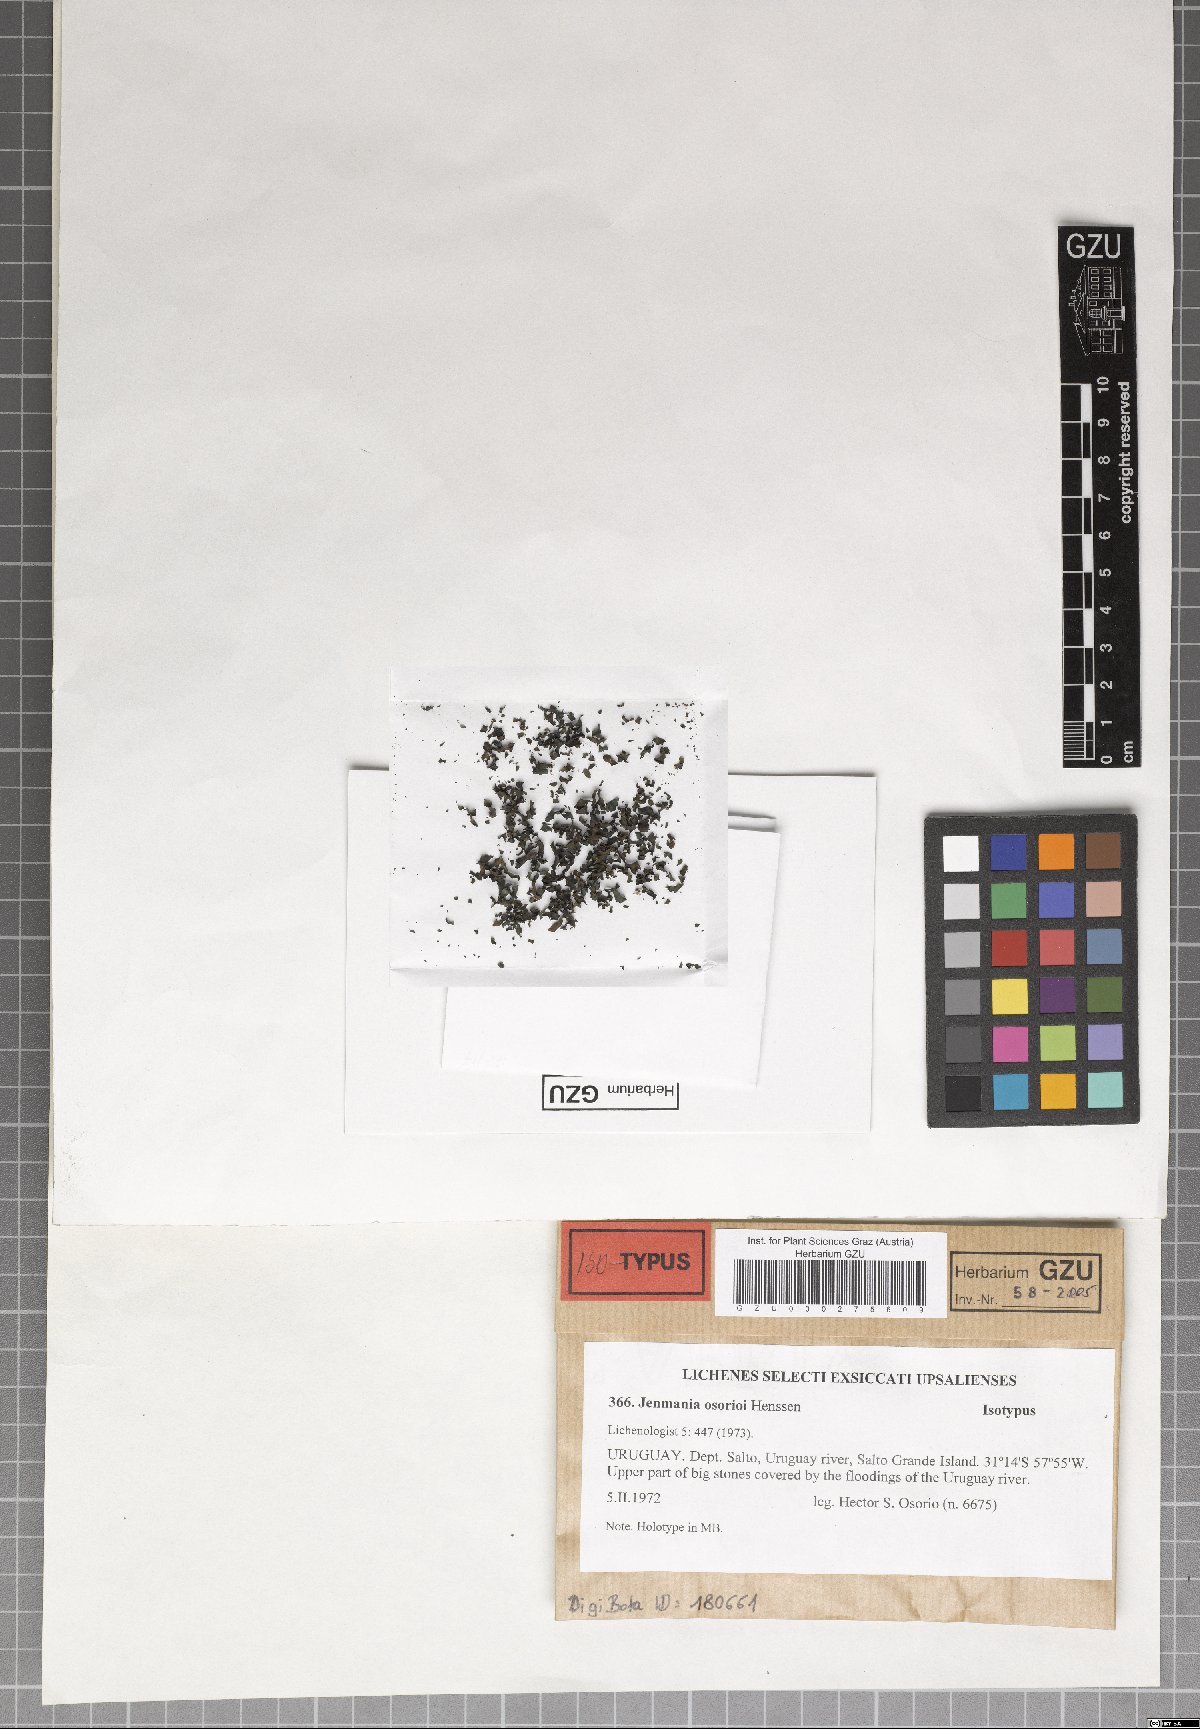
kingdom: Fungi
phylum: Ascomycota
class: Lichinomycetes
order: Lichinales
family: Lichinaceae
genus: Jenmania
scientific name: Jenmania osorioi
